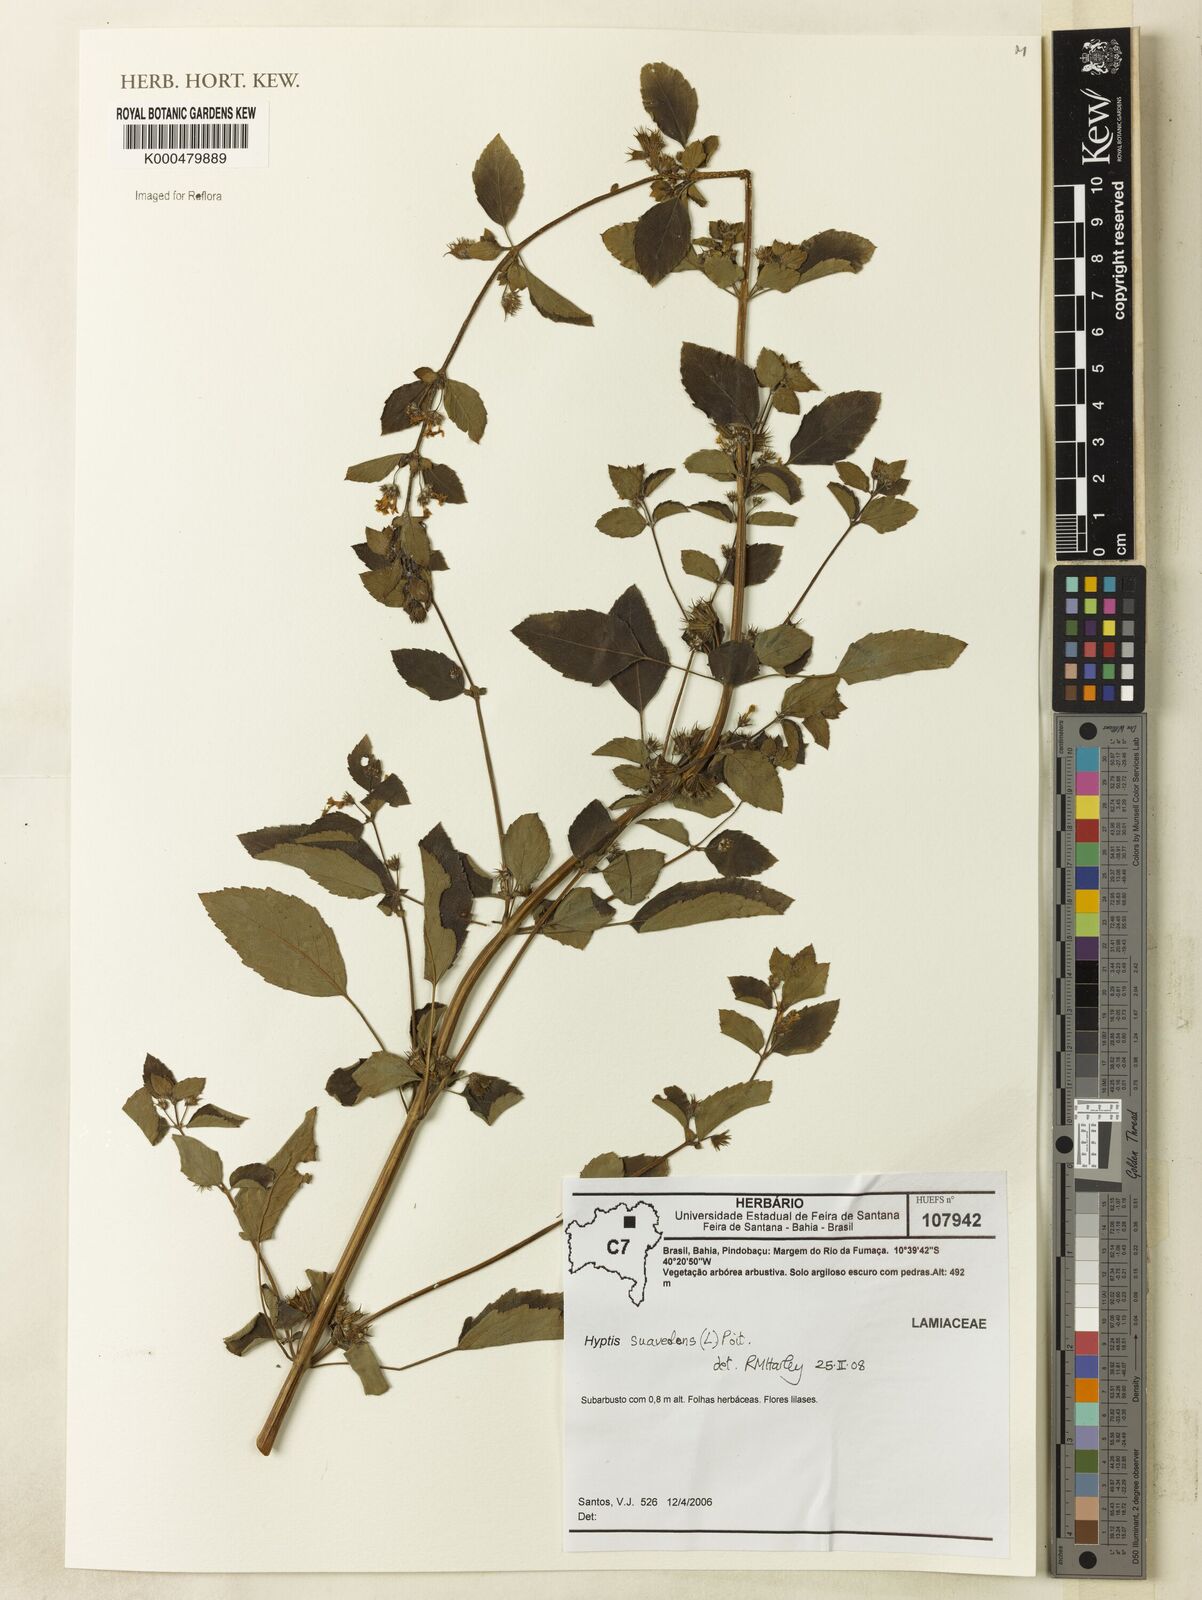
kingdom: Plantae
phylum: Tracheophyta
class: Magnoliopsida
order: Lamiales
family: Lamiaceae
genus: Mesosphaerum
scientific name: Mesosphaerum suaveolens
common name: Pignut
